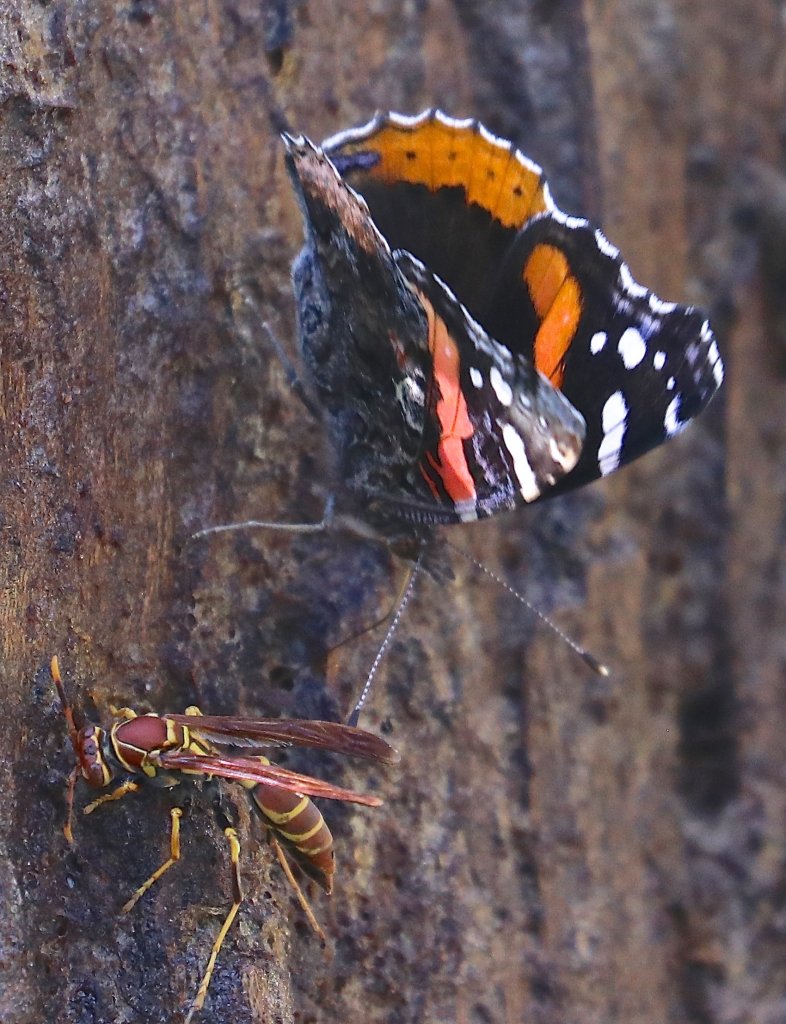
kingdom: Animalia
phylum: Arthropoda
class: Insecta
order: Lepidoptera
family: Nymphalidae
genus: Vanessa
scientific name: Vanessa atalanta
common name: Red Admiral
